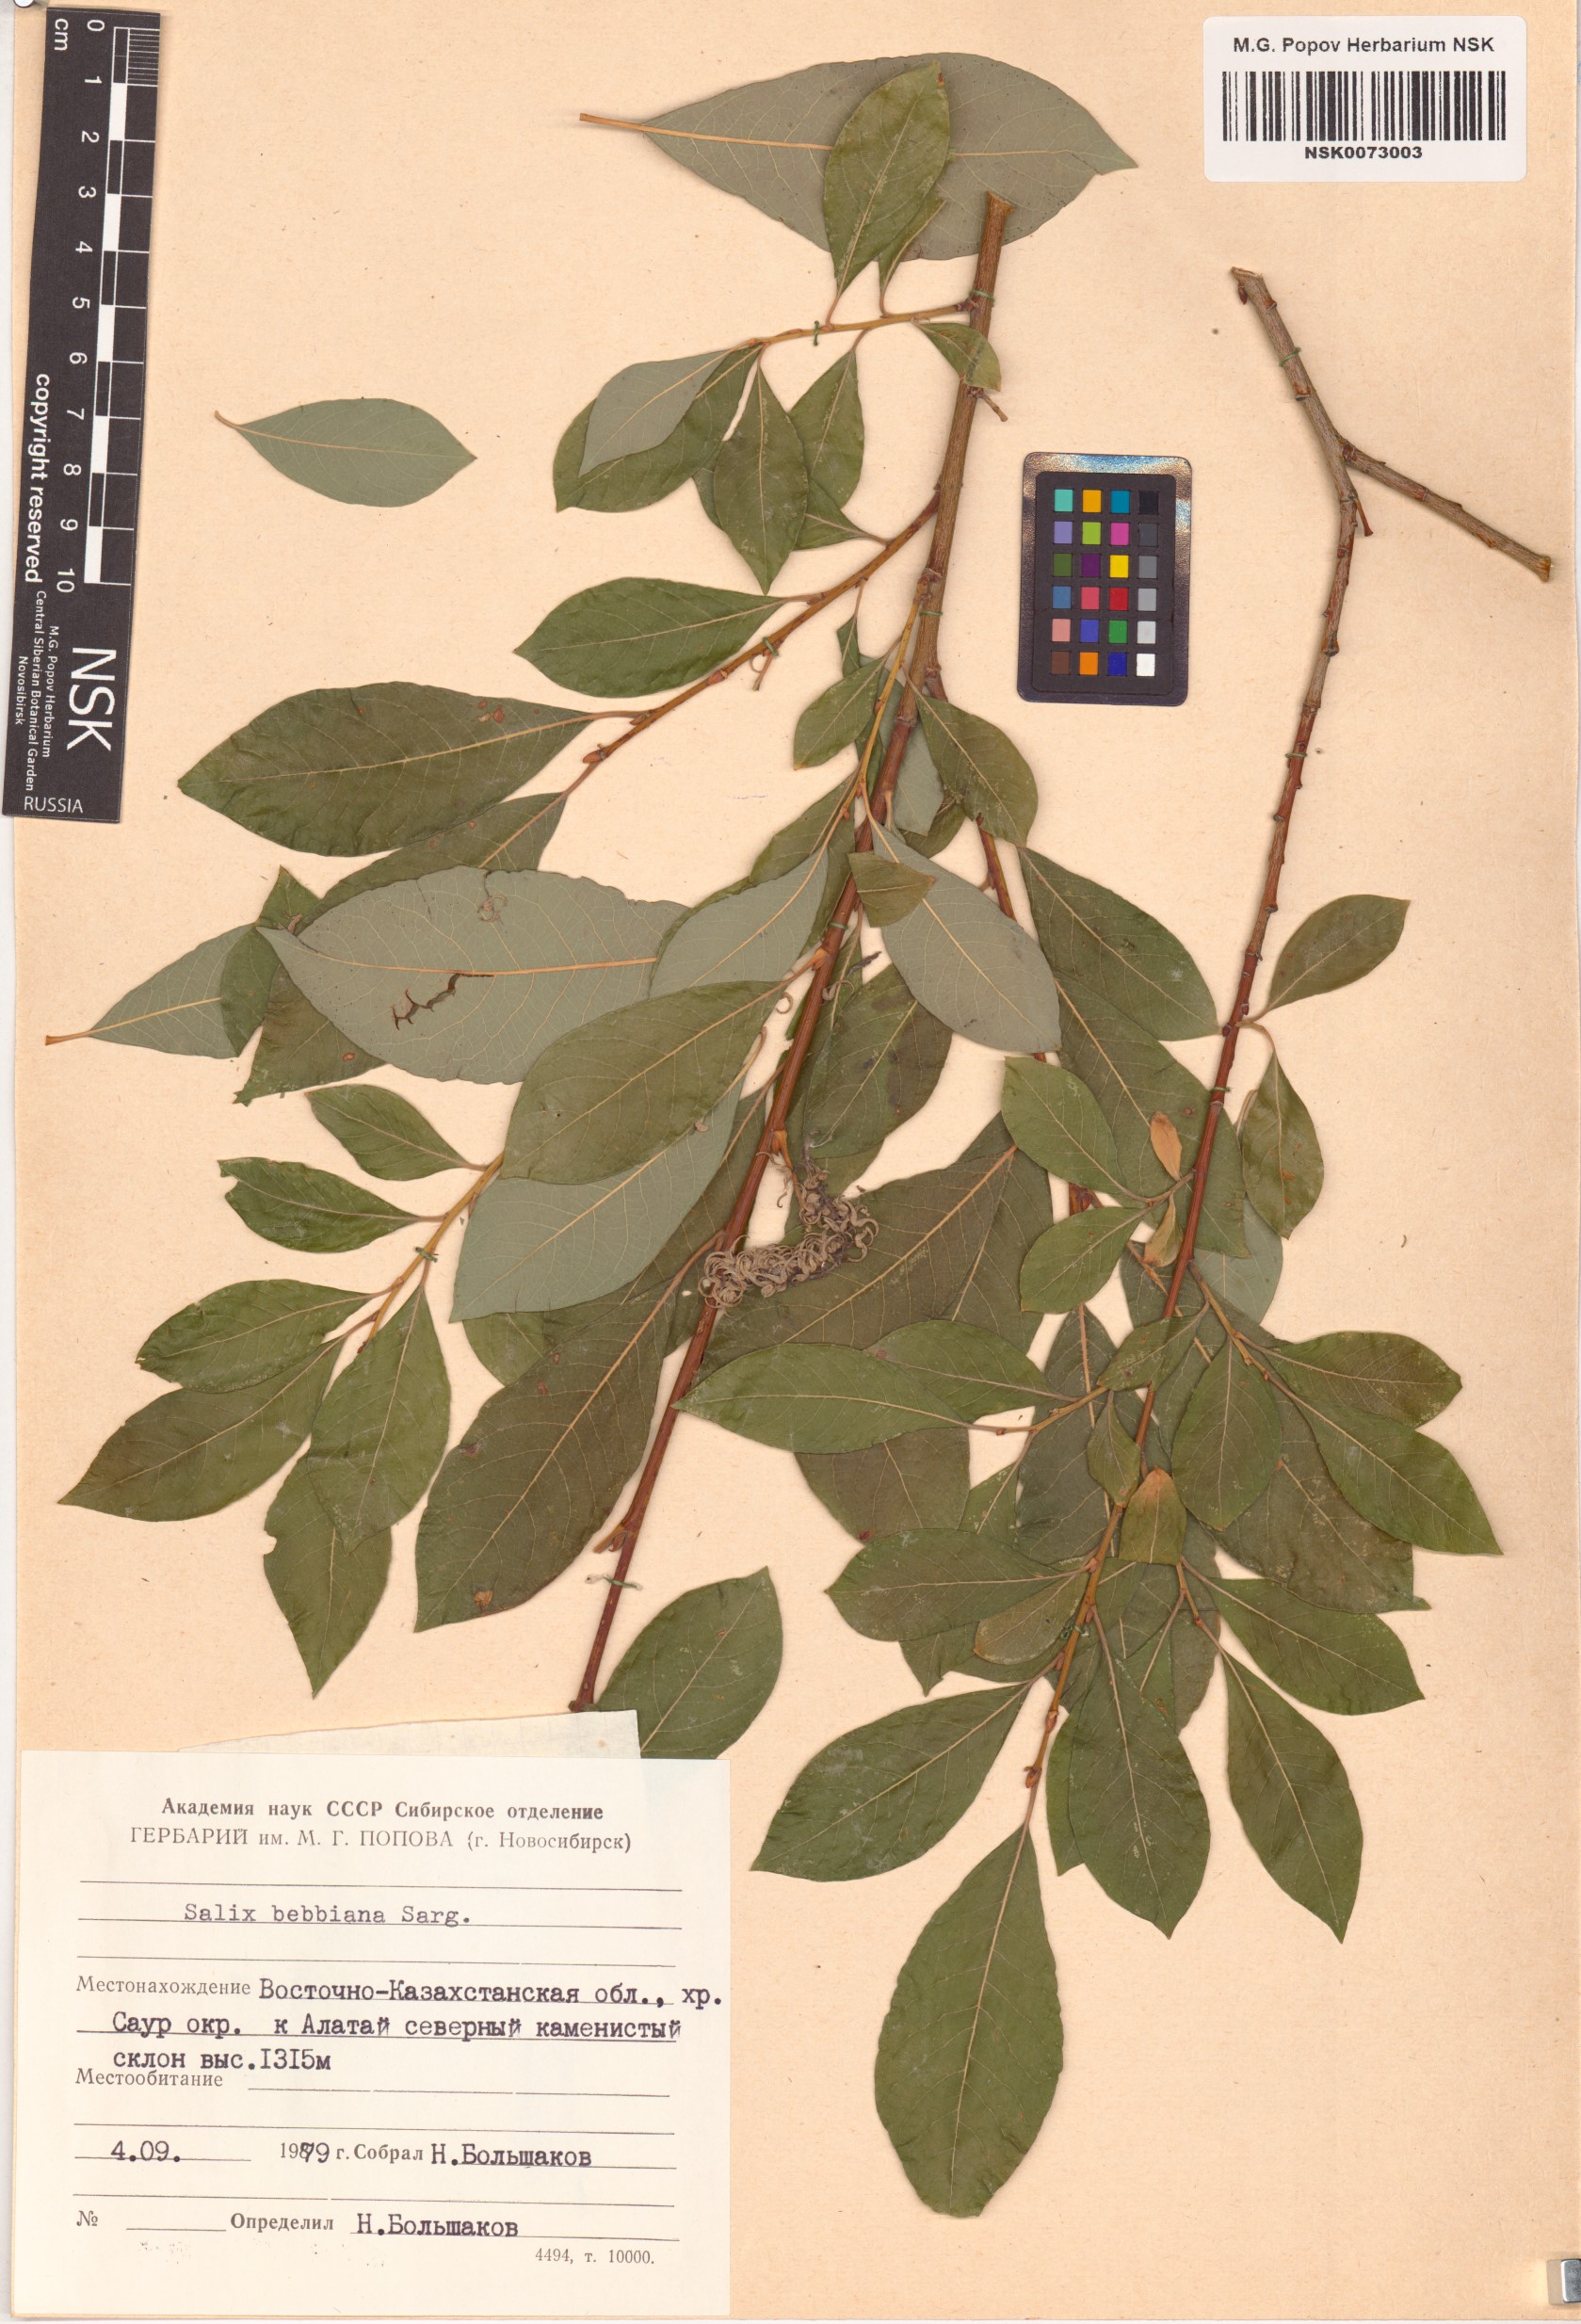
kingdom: Plantae
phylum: Tracheophyta
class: Magnoliopsida
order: Malpighiales
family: Salicaceae
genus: Salix
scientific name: Salix bebbiana
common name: Bebb's willow
